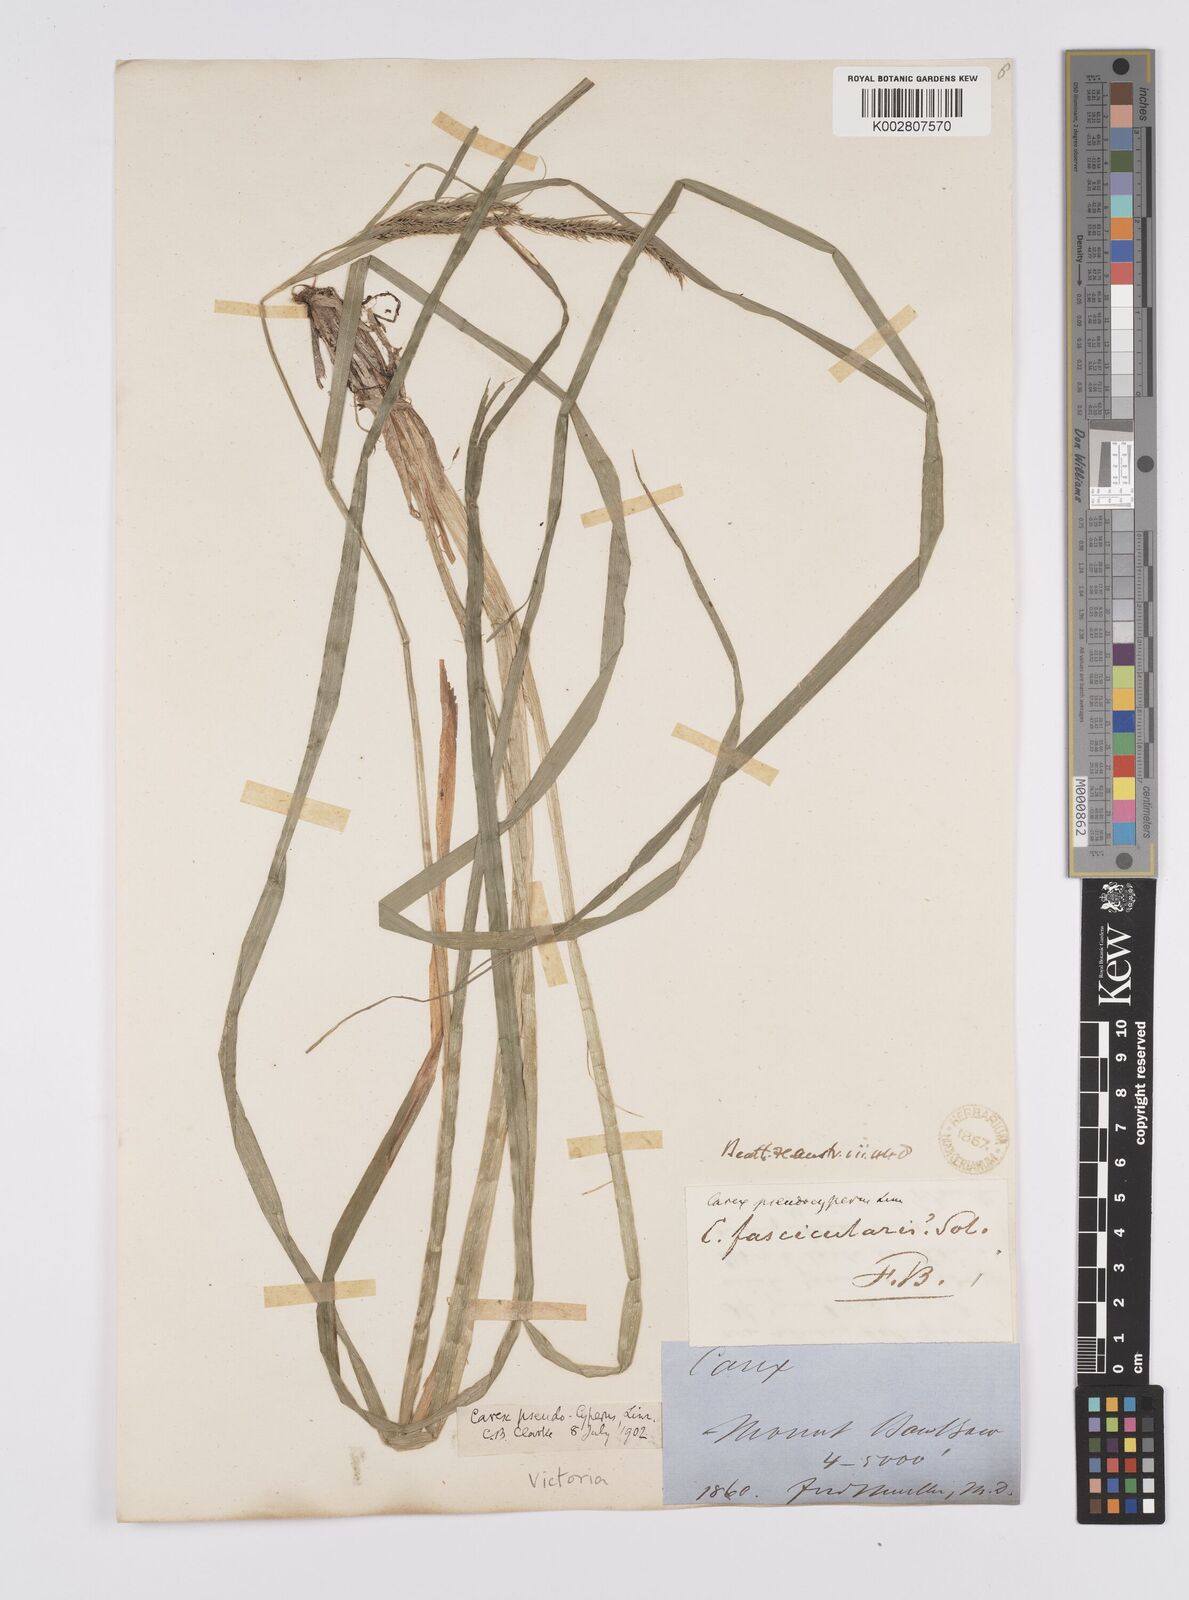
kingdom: Plantae
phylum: Tracheophyta
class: Liliopsida
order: Poales
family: Cyperaceae
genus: Carex
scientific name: Carex fascicularis
